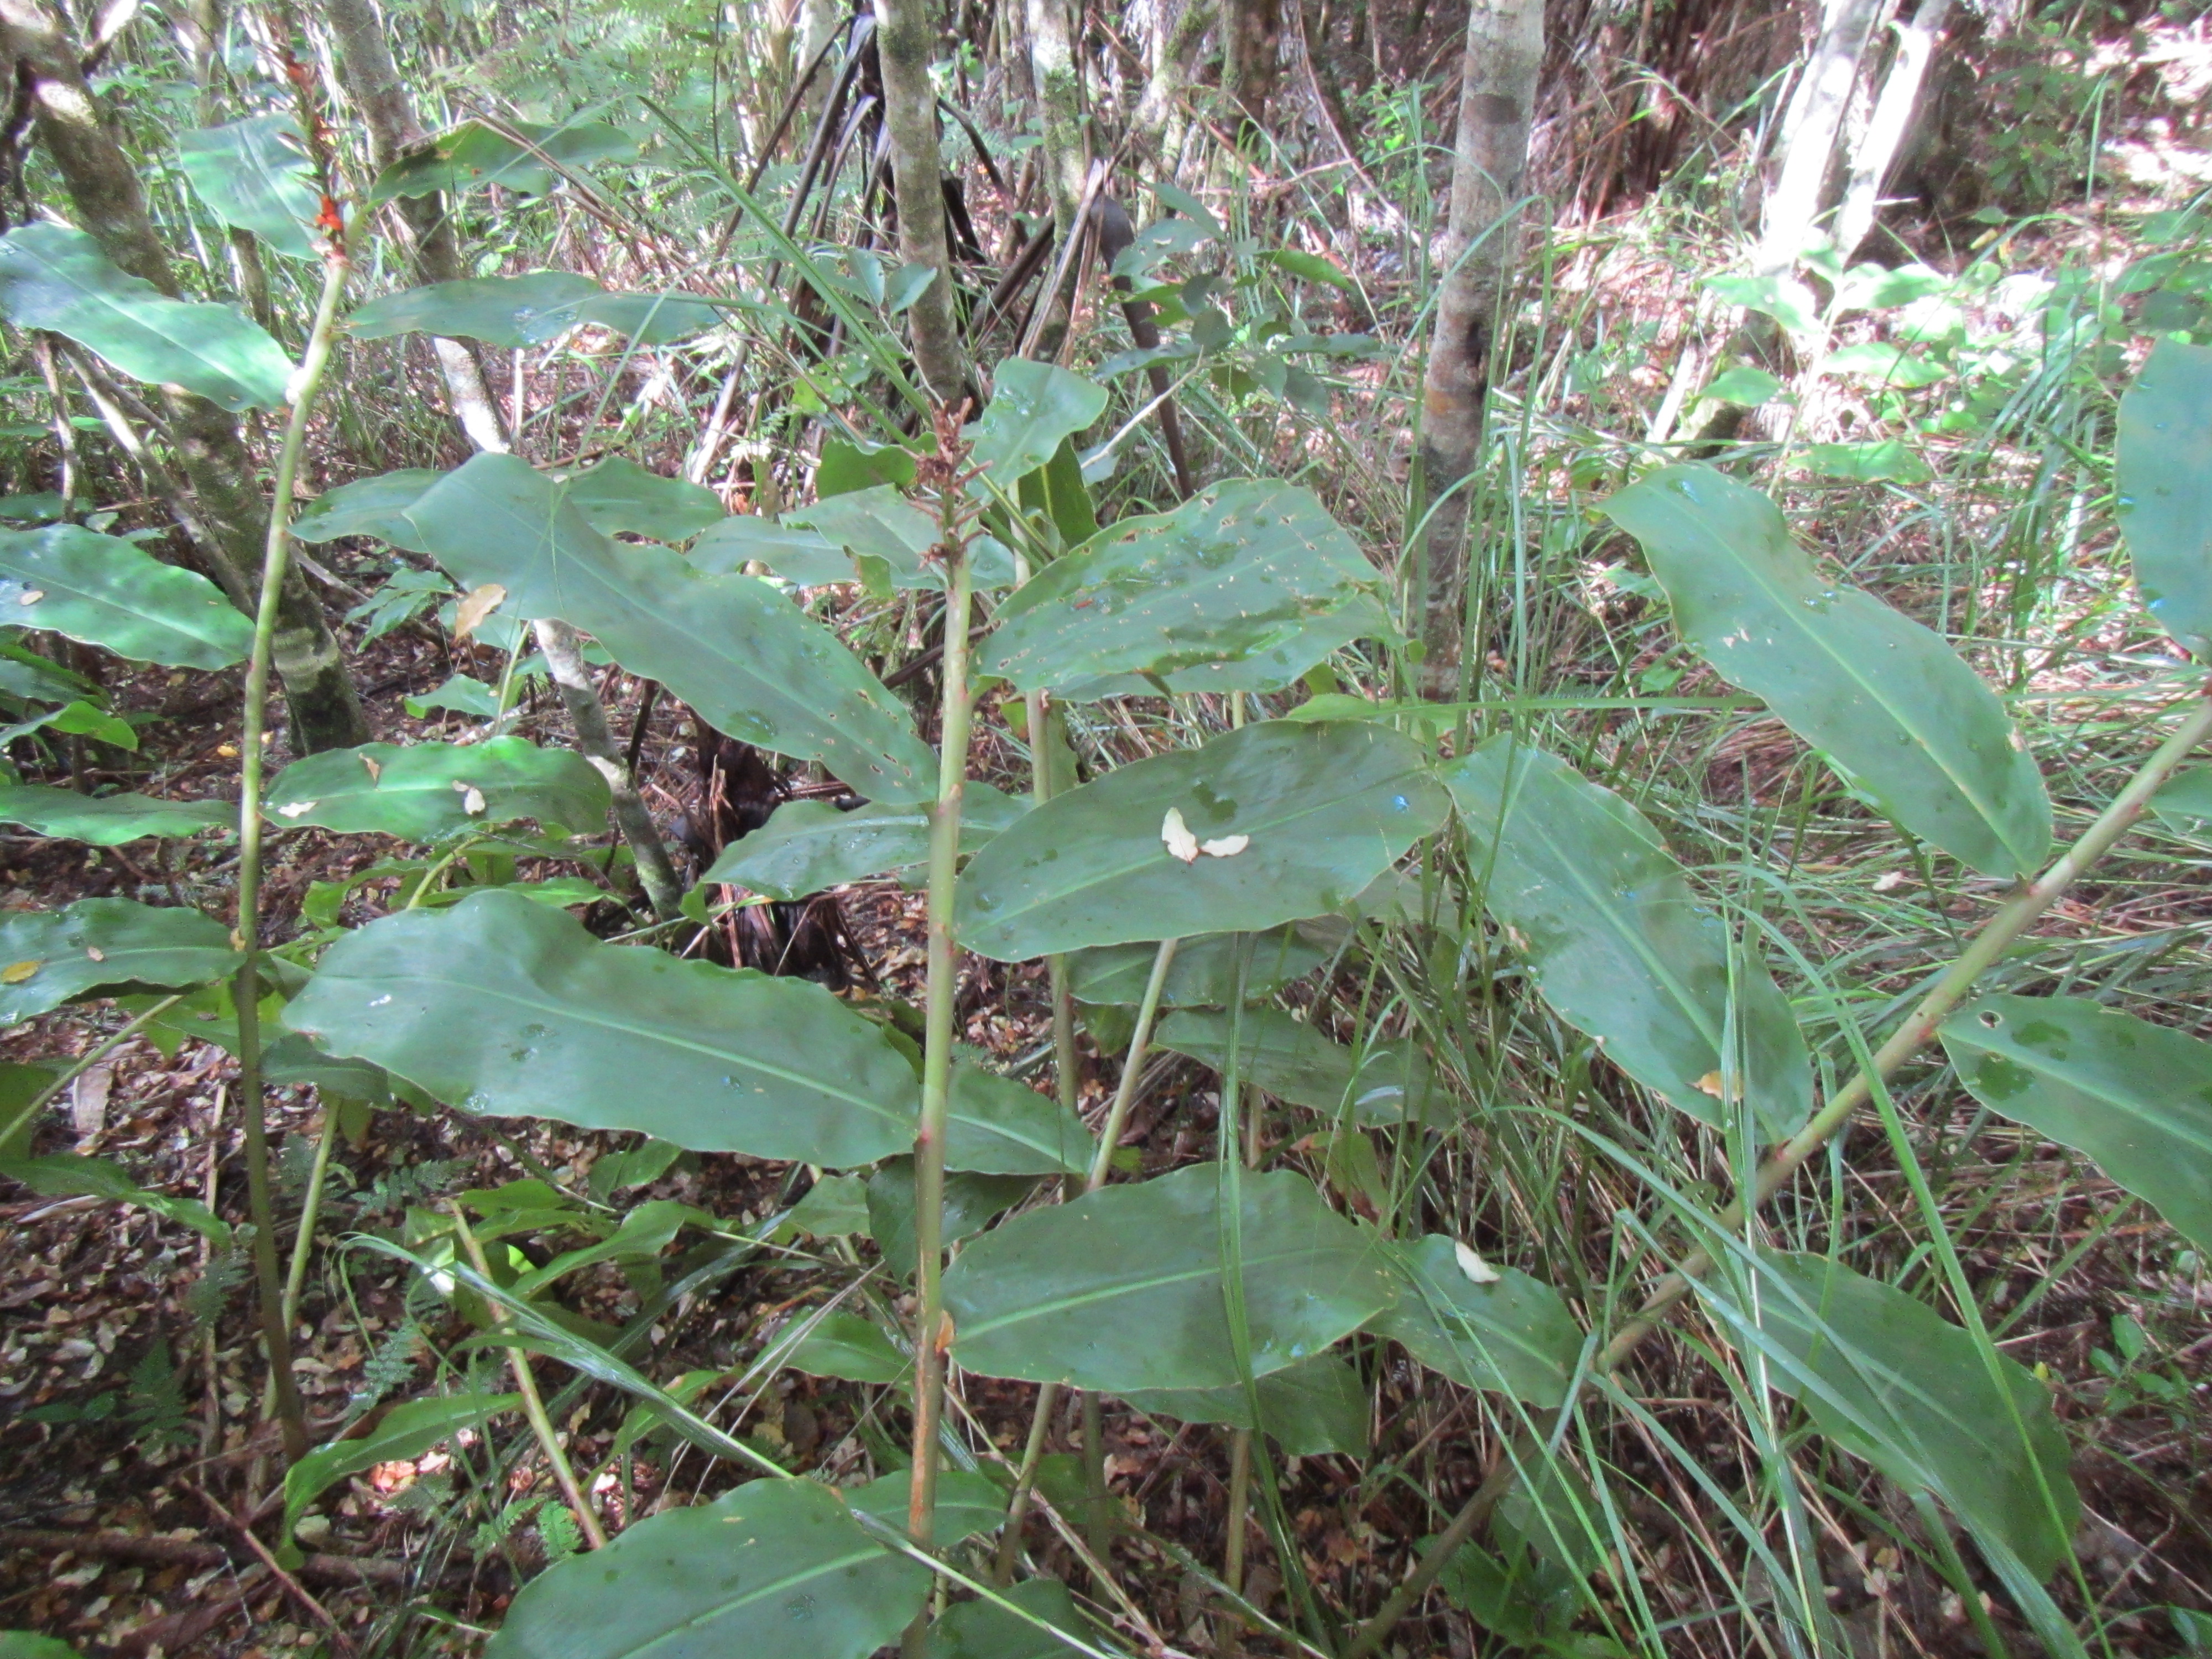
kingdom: Plantae
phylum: Tracheophyta
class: Liliopsida
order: Zingiberales
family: Zingiberaceae
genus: Hedychium
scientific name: Hedychium gardnerianum
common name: Himalayan ginger
